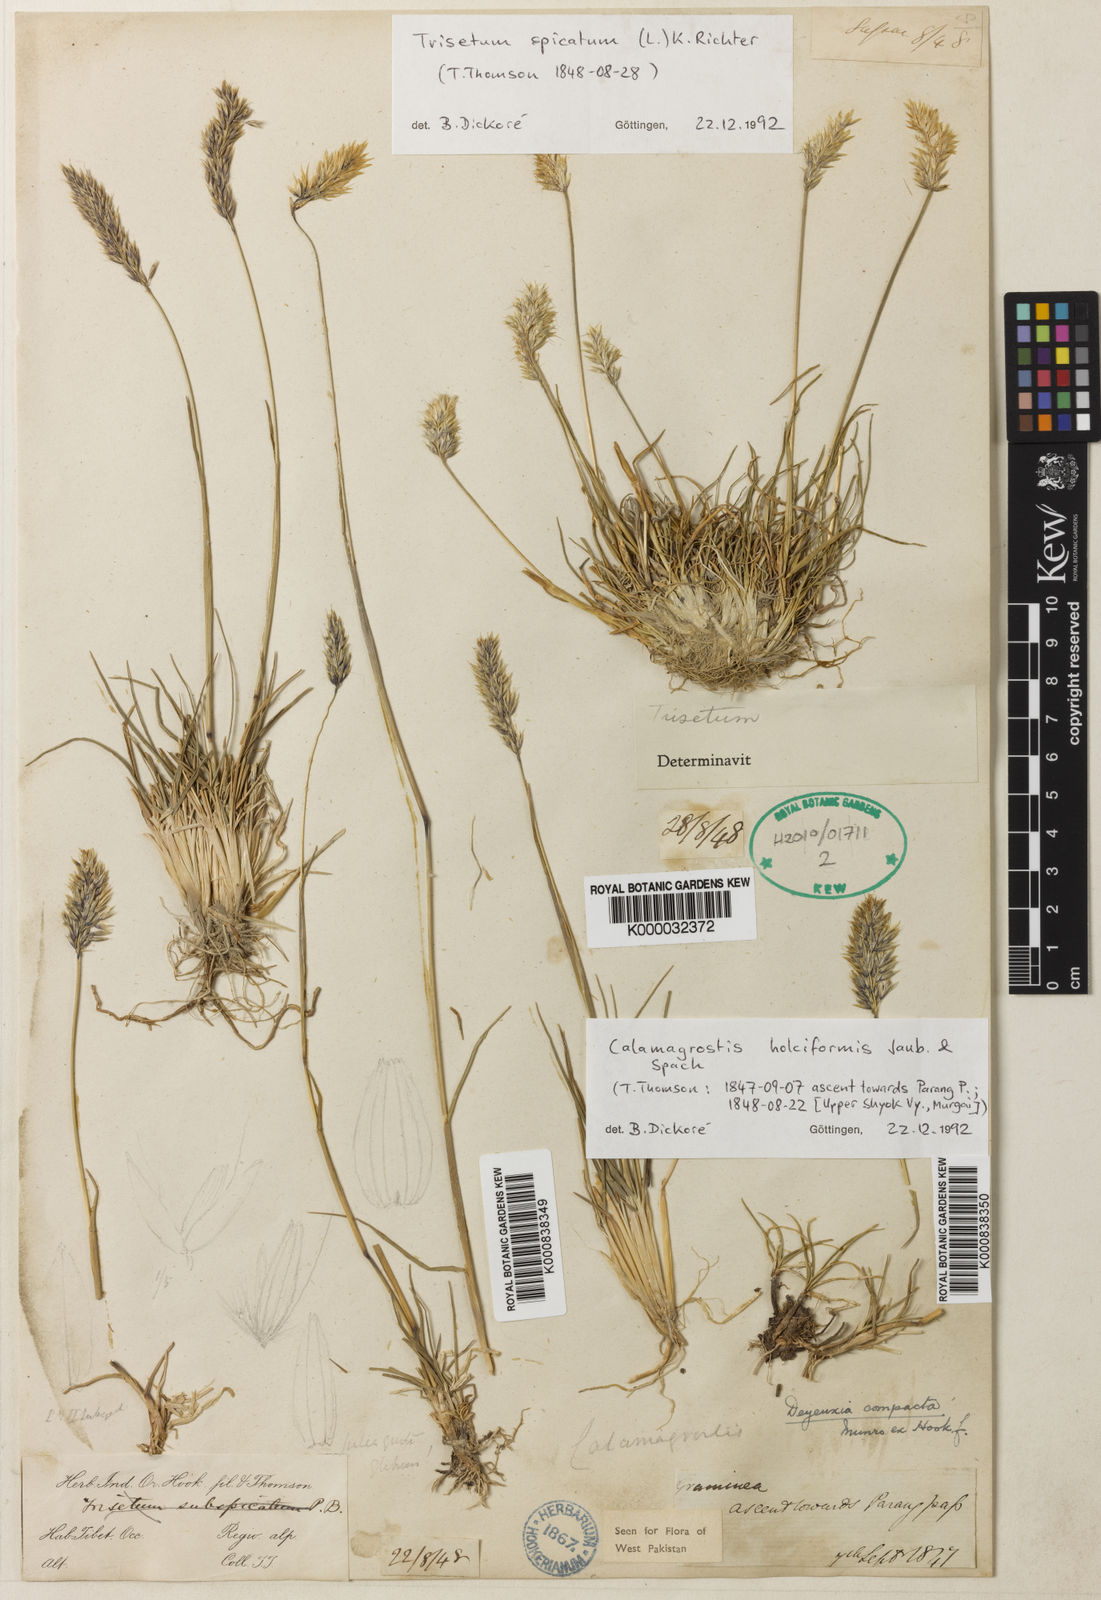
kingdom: Plantae
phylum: Tracheophyta
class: Liliopsida
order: Poales
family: Poaceae
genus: Calamagrostis
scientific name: Calamagrostis holciformis
